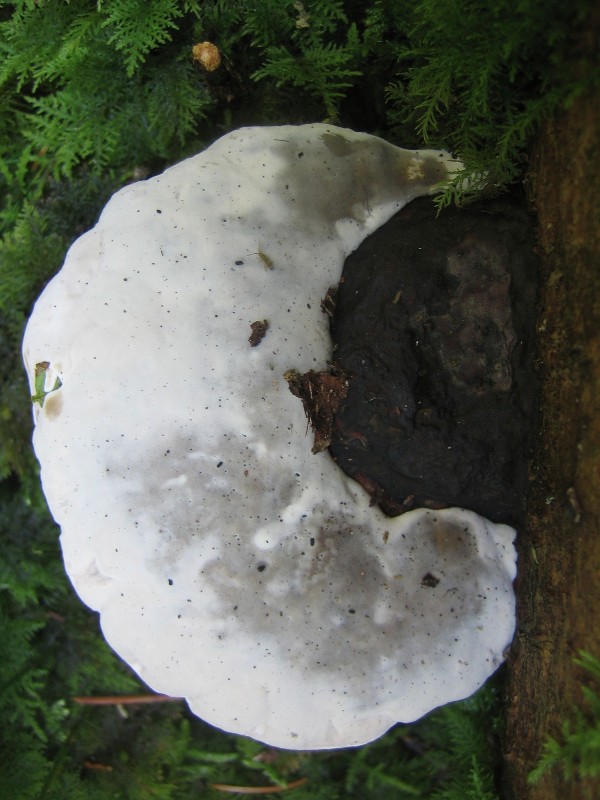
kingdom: Fungi
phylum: Basidiomycota
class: Agaricomycetes
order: Polyporales
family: Fomitopsidaceae
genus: Fomitopsis
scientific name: Fomitopsis pinicola
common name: randbæltet hovporesvamp
